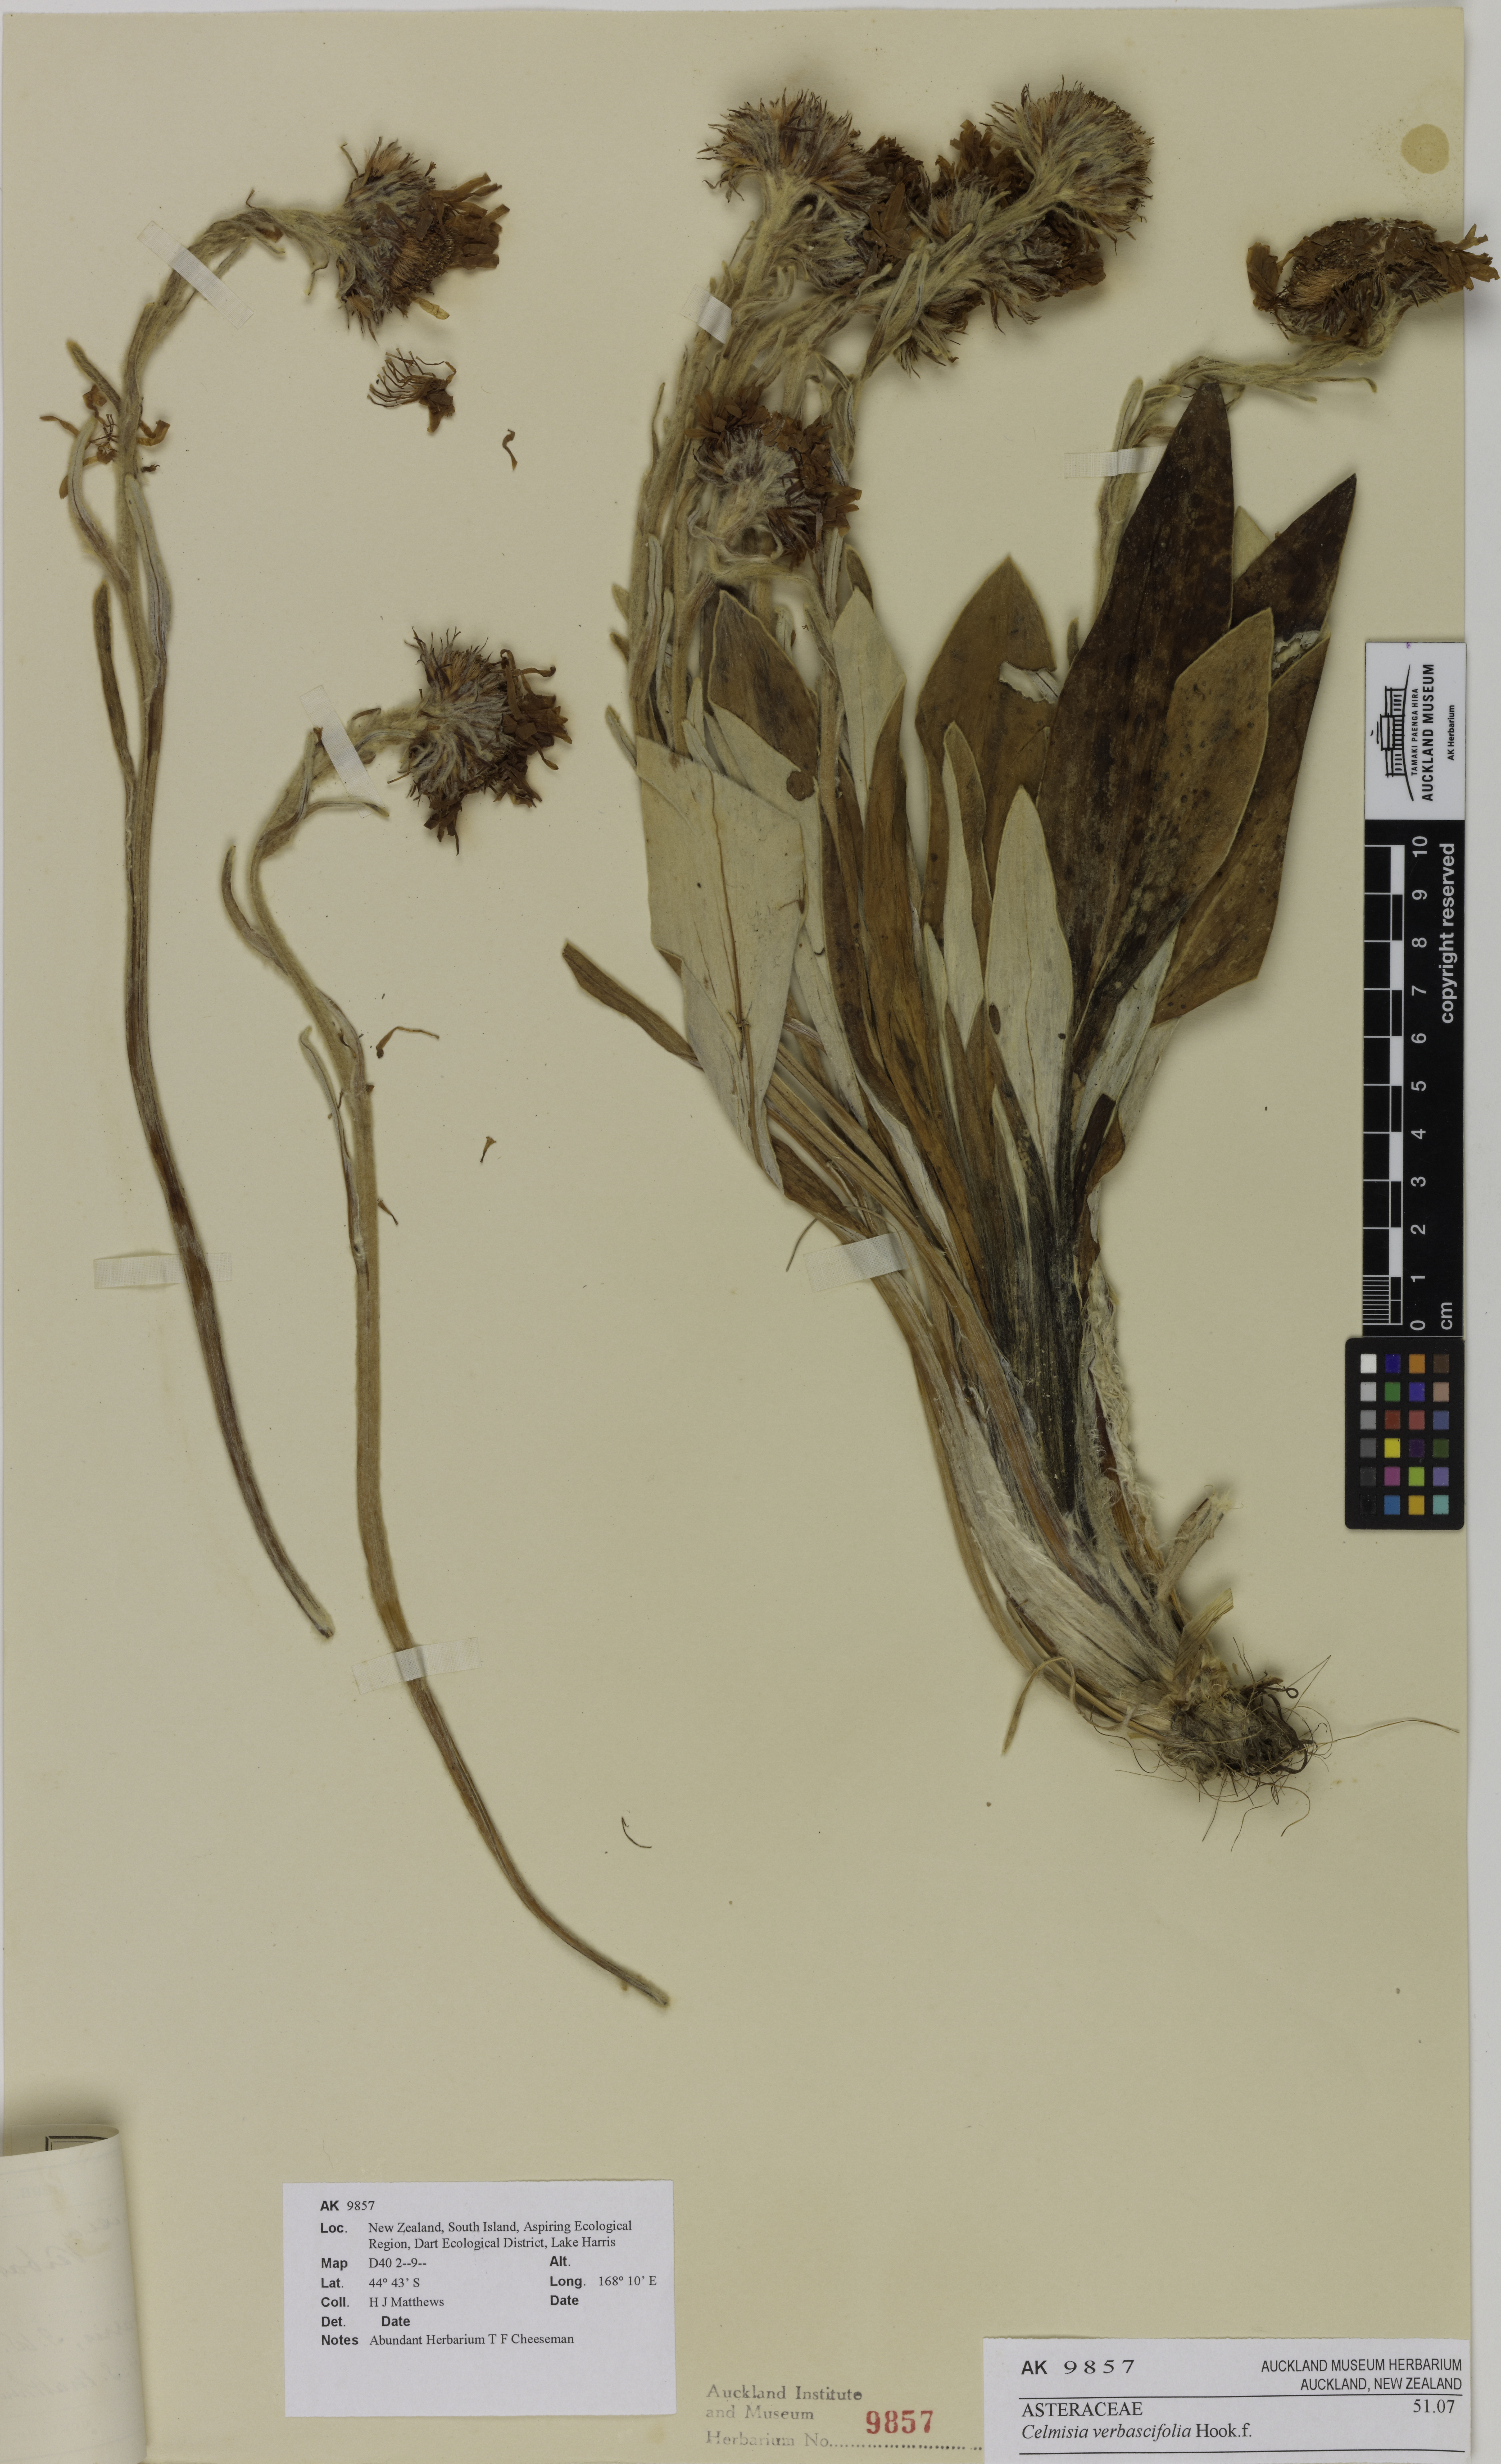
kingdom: Plantae
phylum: Tracheophyta
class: Magnoliopsida
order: Asterales
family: Asteraceae
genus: Celmisia
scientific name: Celmisia verbascifolia
